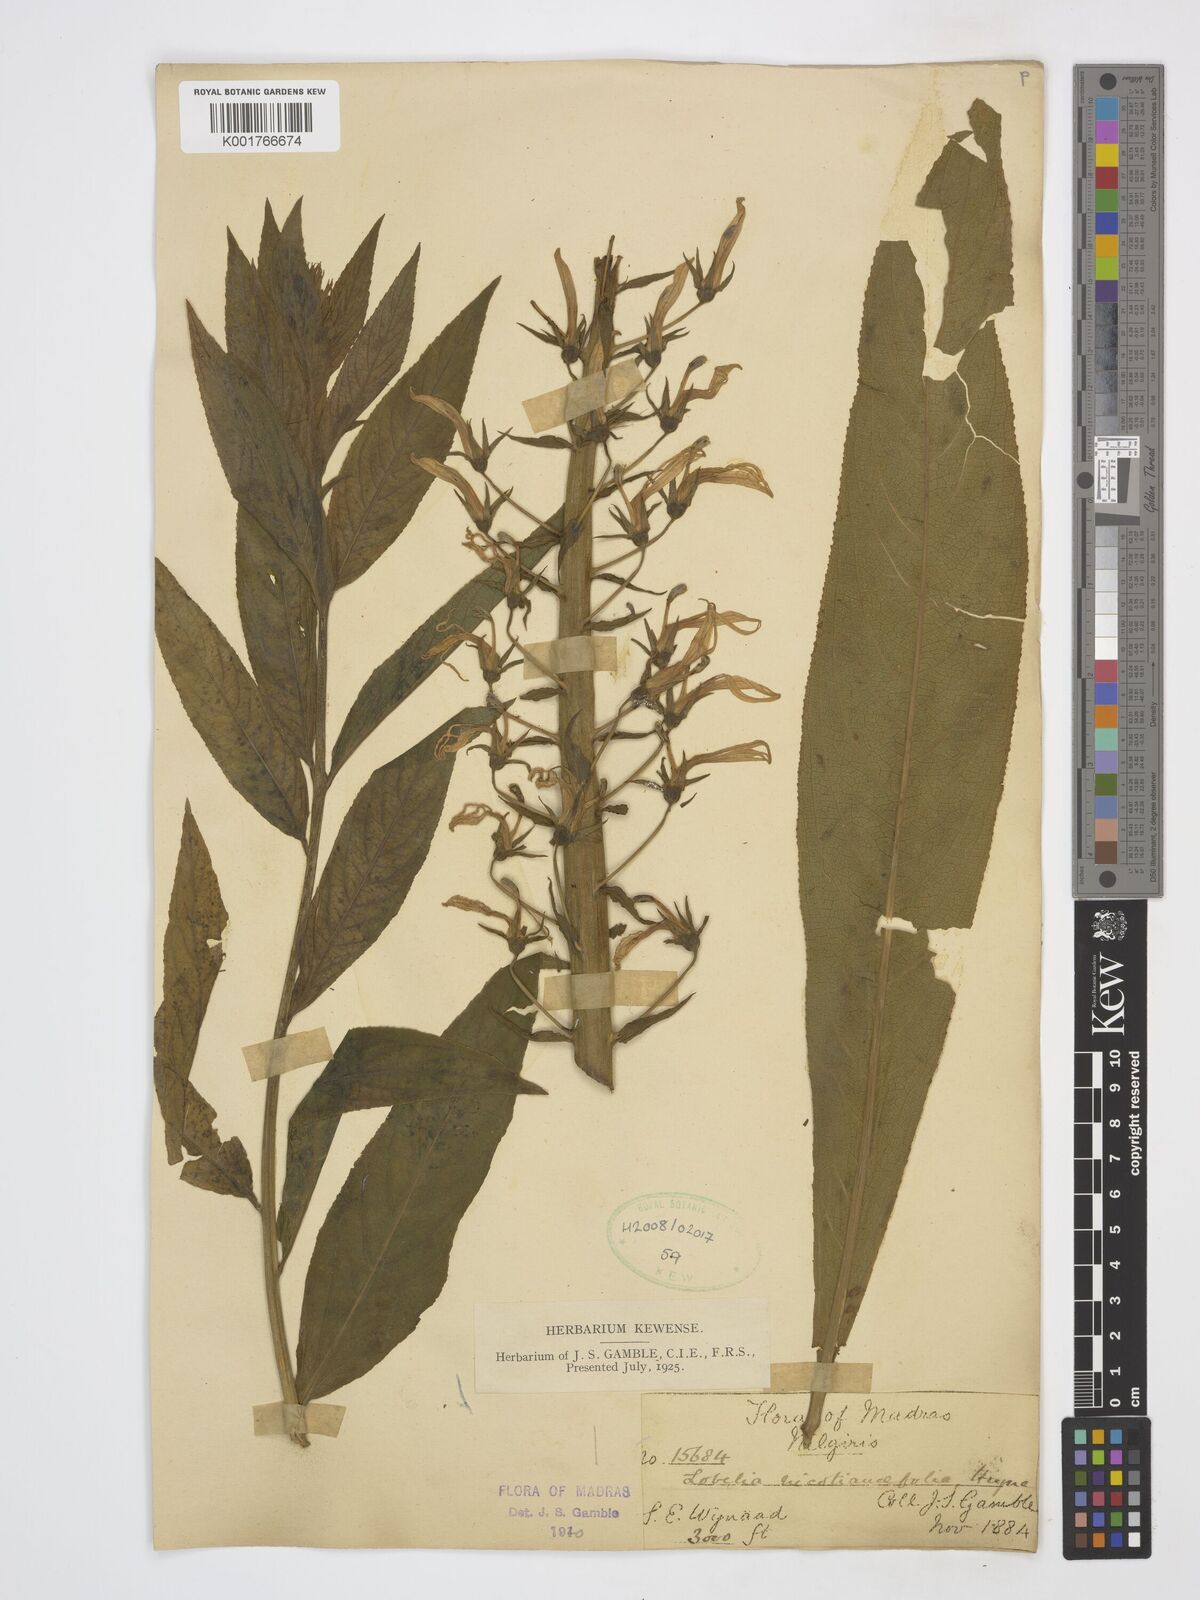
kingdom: Plantae
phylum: Tracheophyta
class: Magnoliopsida
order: Asterales
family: Campanulaceae
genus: Lobelia
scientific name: Lobelia nicotianifolia
